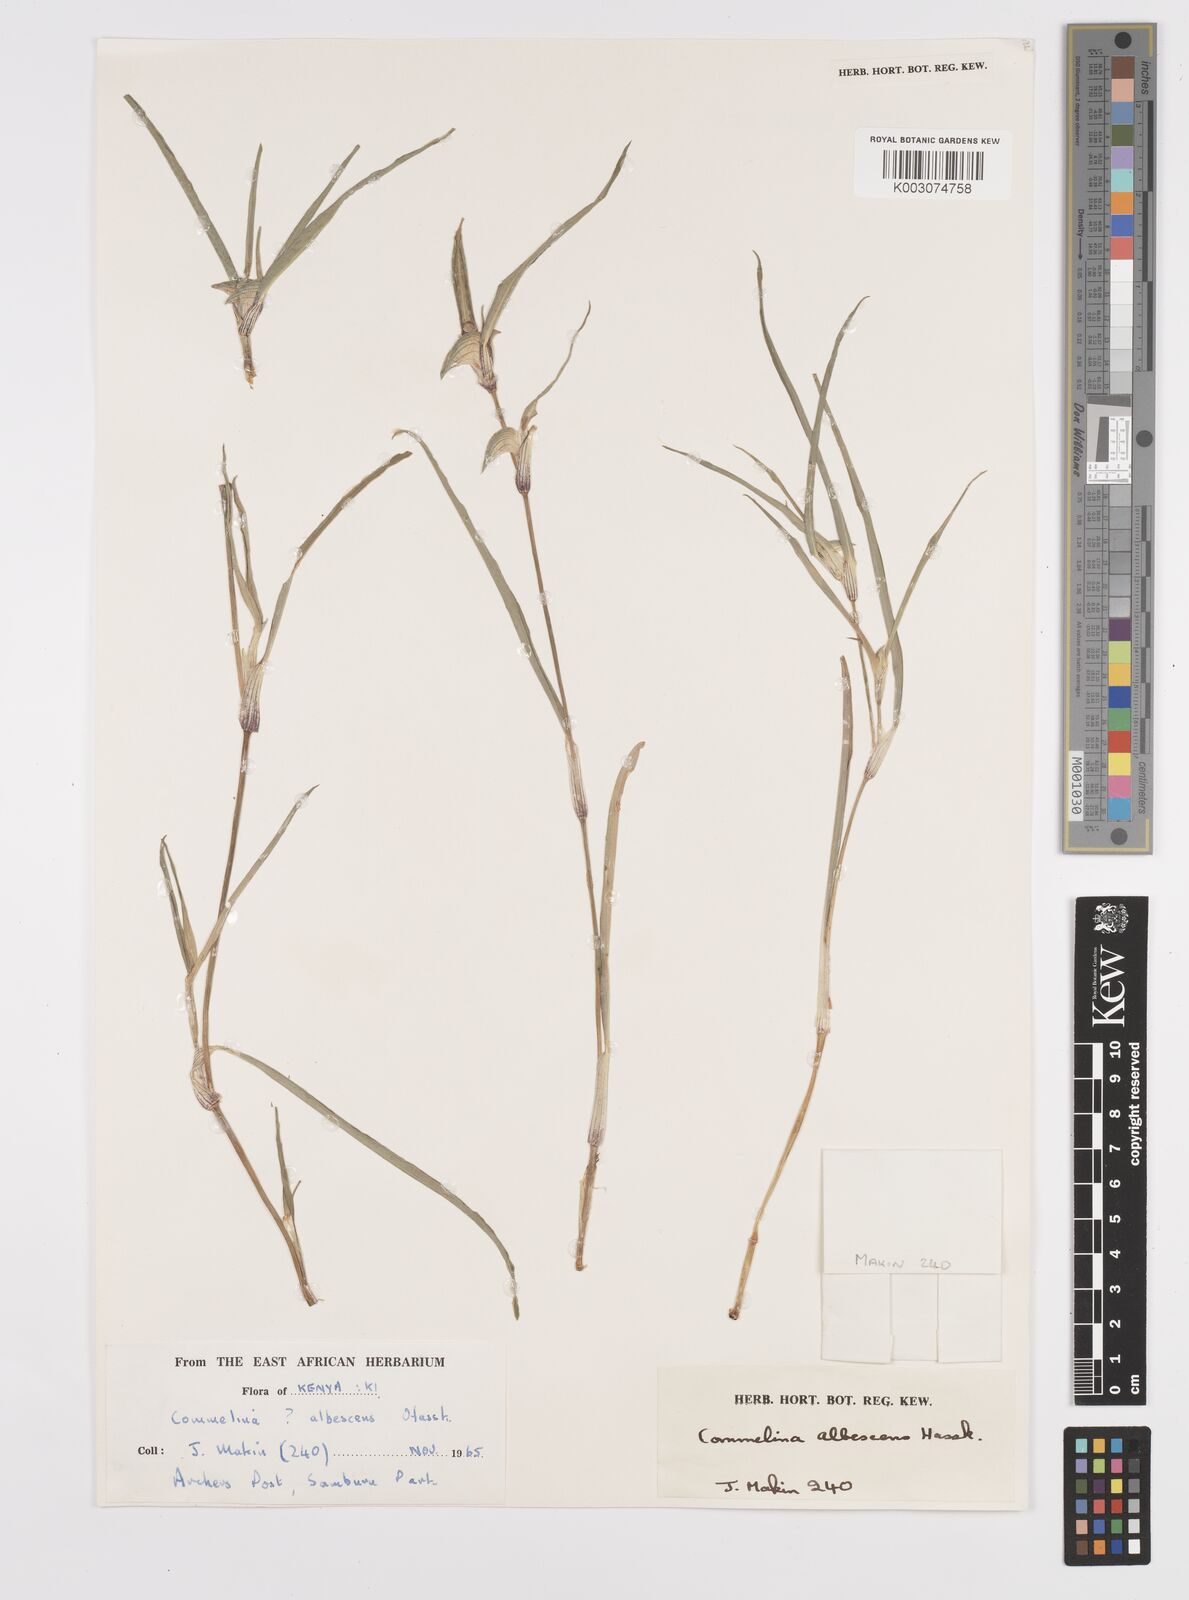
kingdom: Plantae
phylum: Tracheophyta
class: Liliopsida
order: Commelinales
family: Commelinaceae
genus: Commelina
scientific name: Commelina albescens
